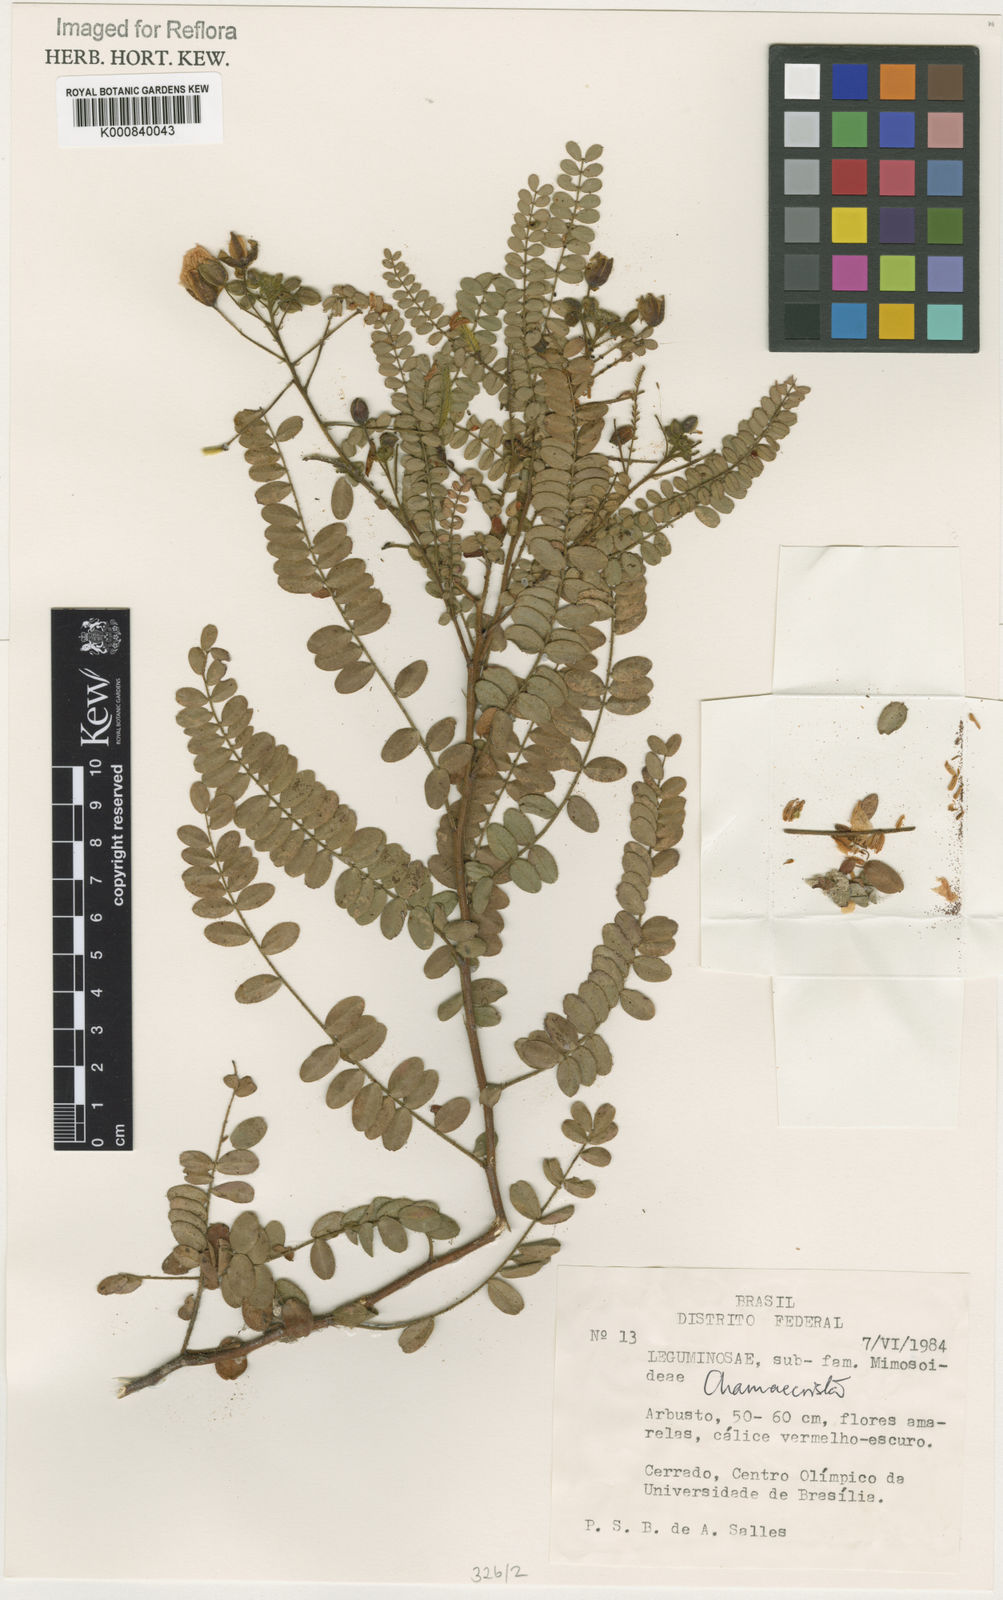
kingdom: Plantae
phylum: Tracheophyta
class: Magnoliopsida
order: Fabales
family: Fabaceae
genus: Chamaecrista
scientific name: Chamaecrista filicifolia
